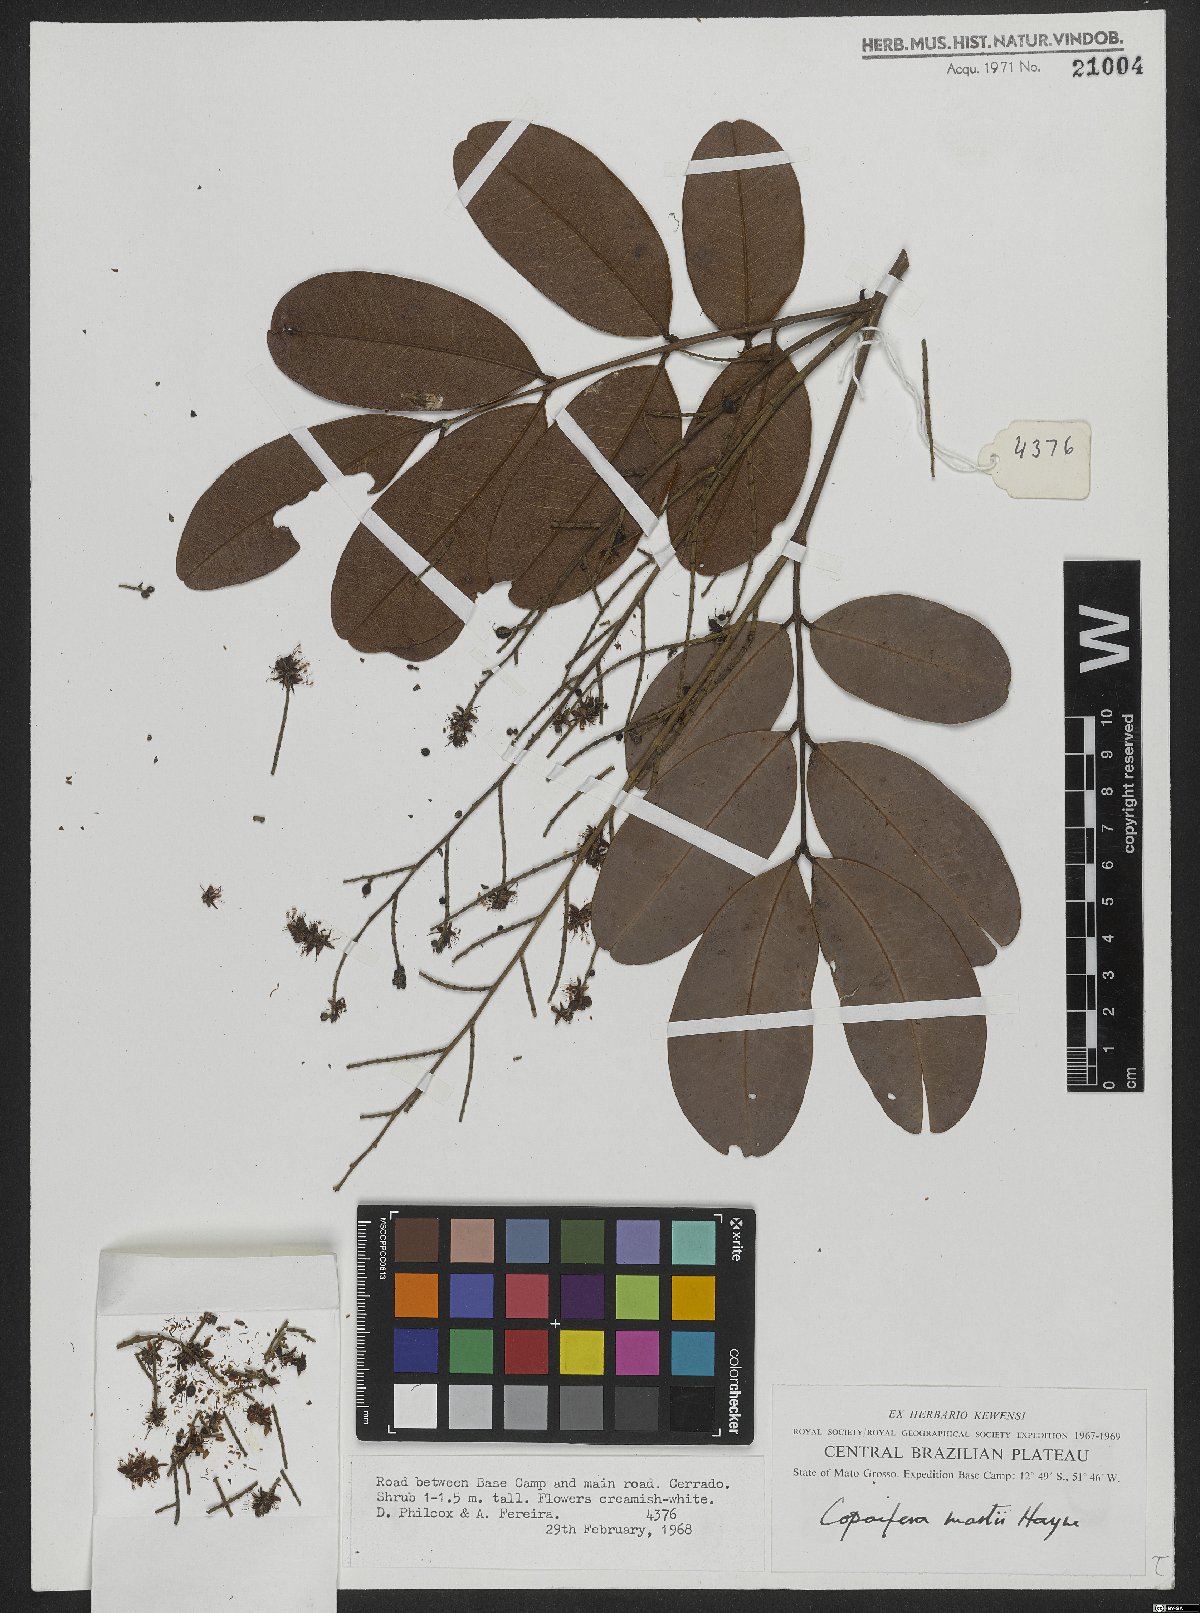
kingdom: Plantae
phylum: Tracheophyta
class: Magnoliopsida
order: Fabales
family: Fabaceae
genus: Copaifera
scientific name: Copaifera martii
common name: Copaiba
